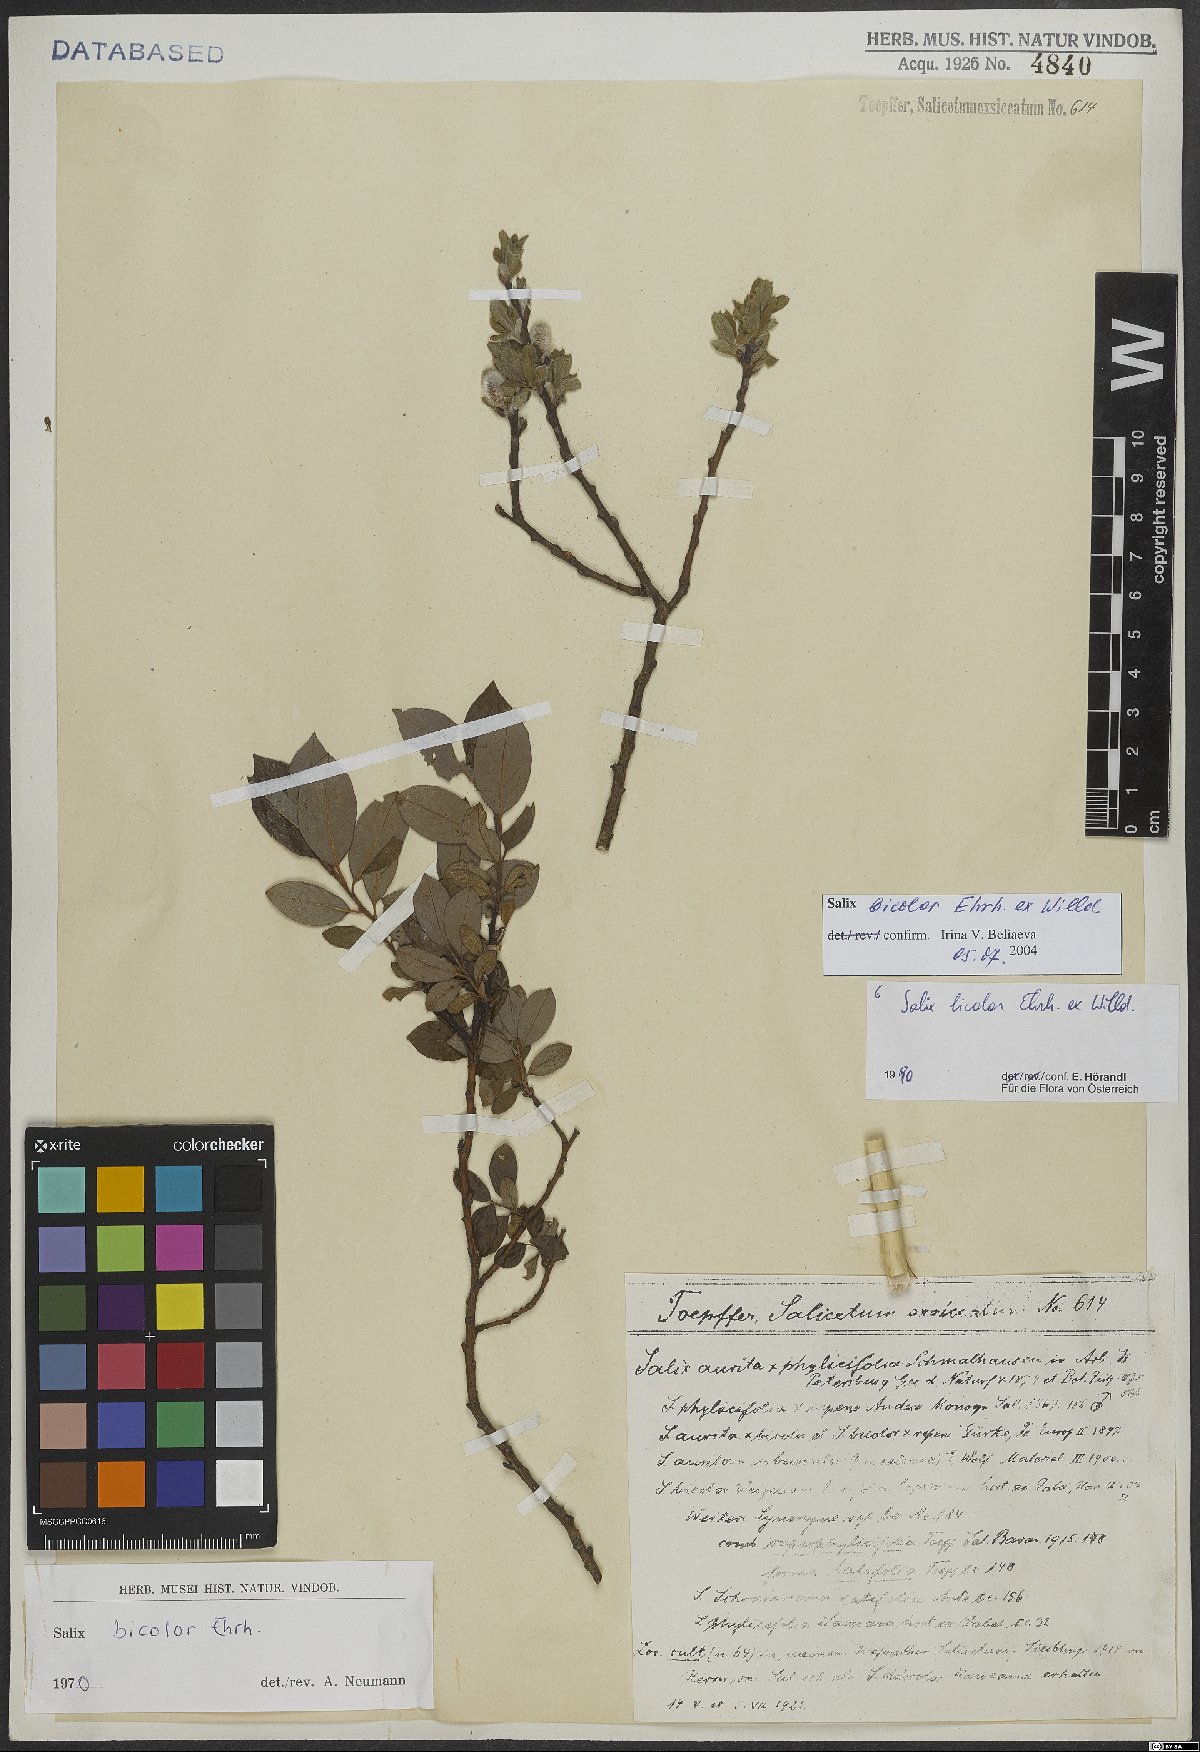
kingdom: Plantae
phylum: Tracheophyta
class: Magnoliopsida
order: Malpighiales
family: Salicaceae
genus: Salix
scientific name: Salix bicolor
